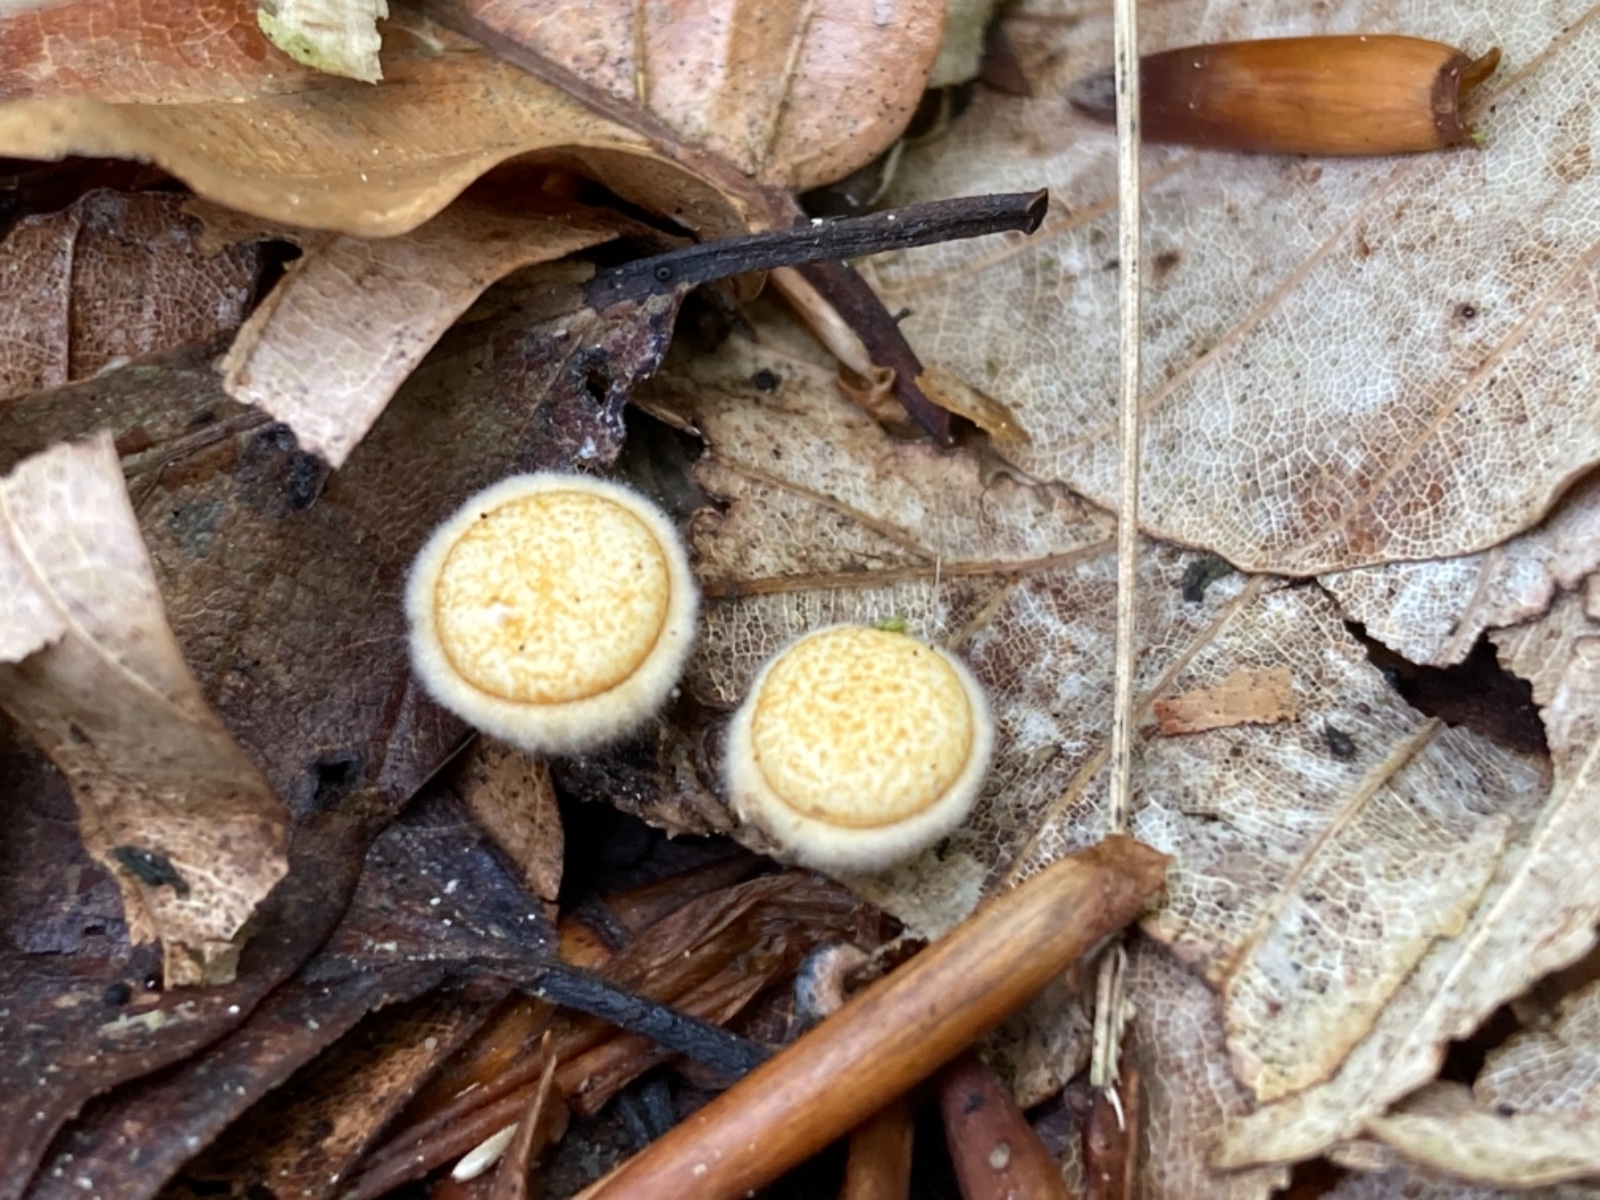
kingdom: Fungi
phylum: Basidiomycota
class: Agaricomycetes
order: Agaricales
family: Psathyrellaceae
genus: Coprinellus
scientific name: Coprinellus disseminatus
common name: bredsået blækhat
